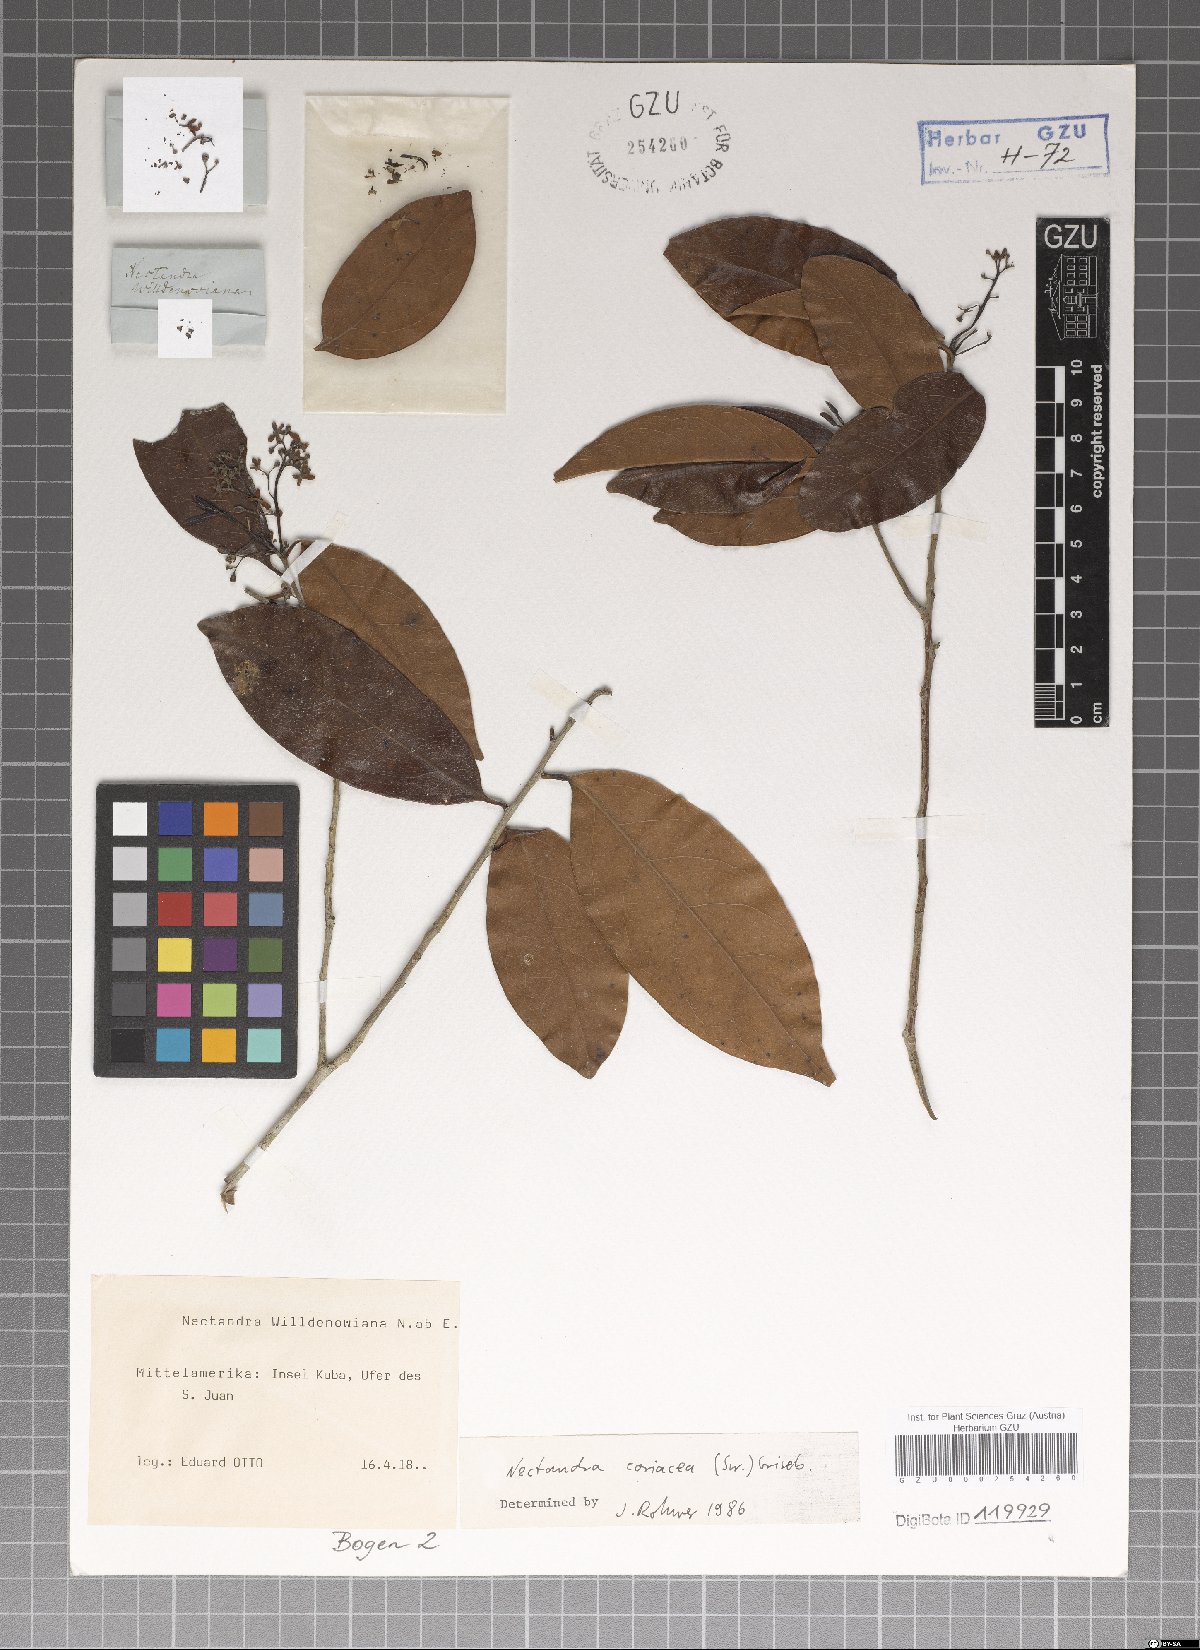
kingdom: Plantae
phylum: Tracheophyta
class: Magnoliopsida
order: Laurales
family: Lauraceae
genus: Damburneya
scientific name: Damburneya coriacea
